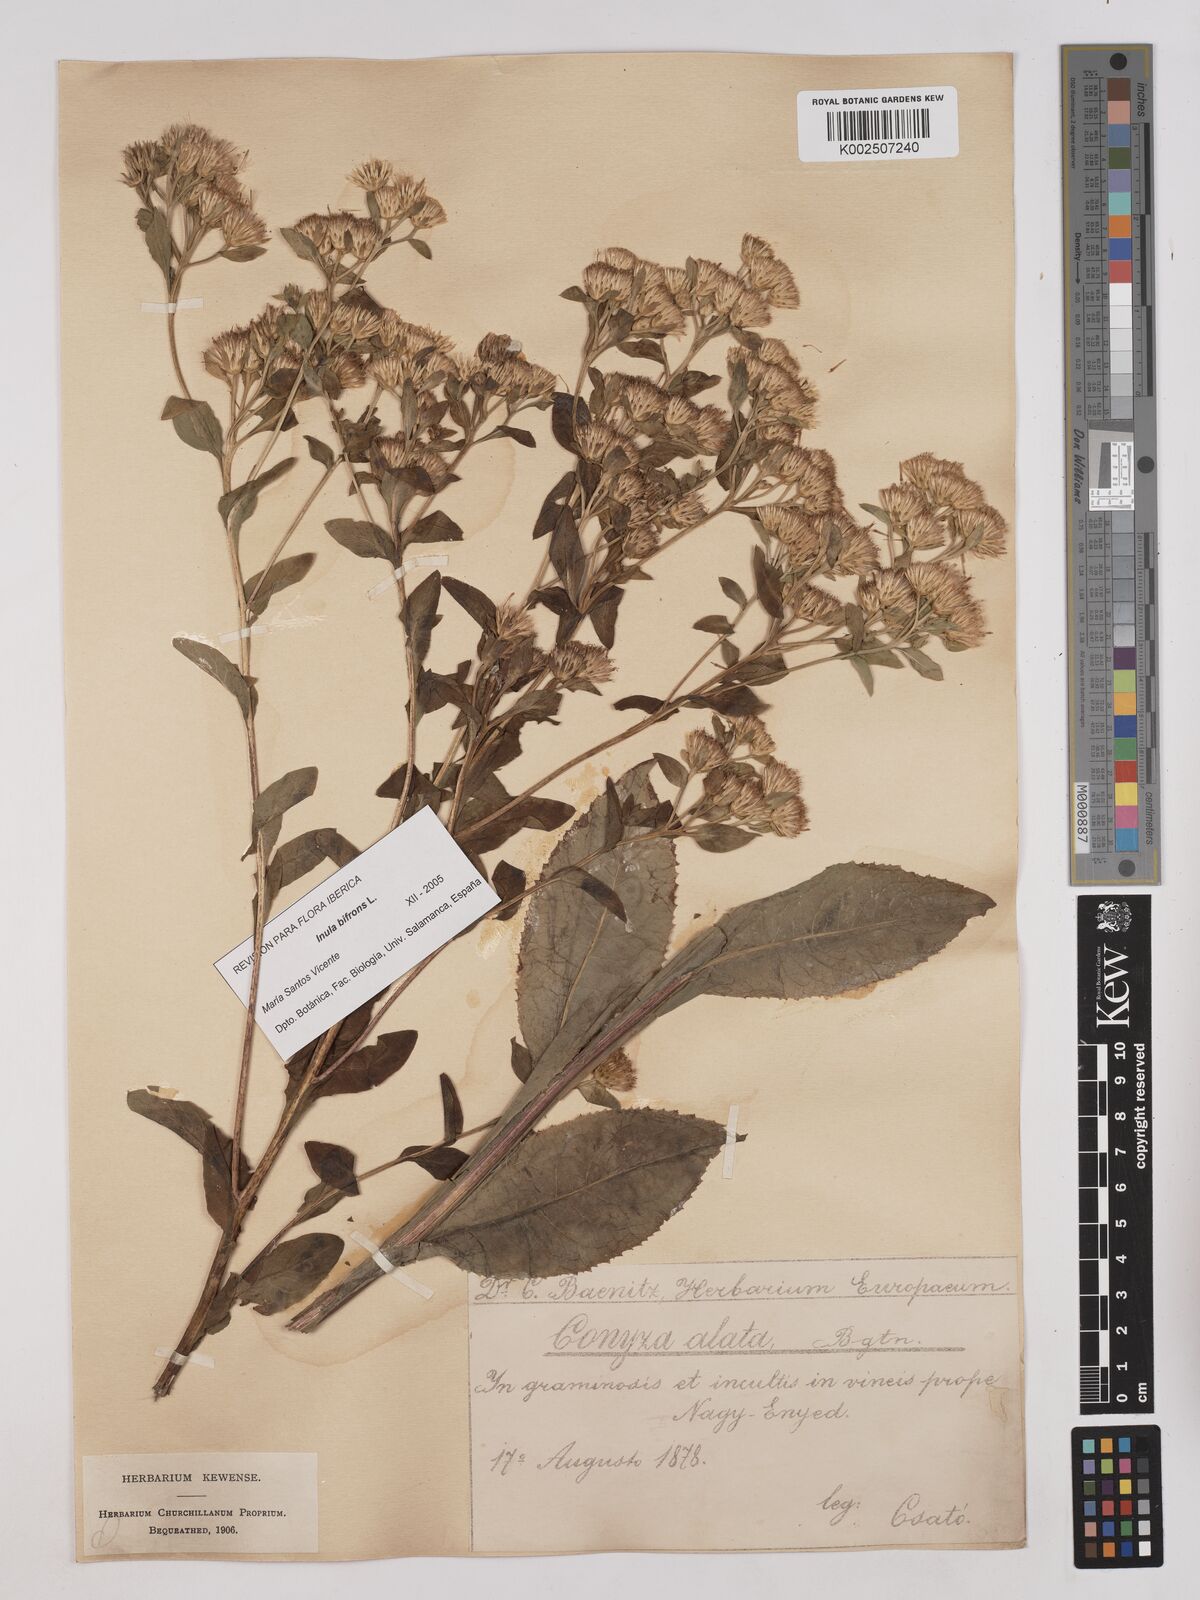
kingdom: Plantae
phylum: Tracheophyta
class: Magnoliopsida
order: Asterales
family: Asteraceae
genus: Pentanema
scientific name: Pentanema bifrons
